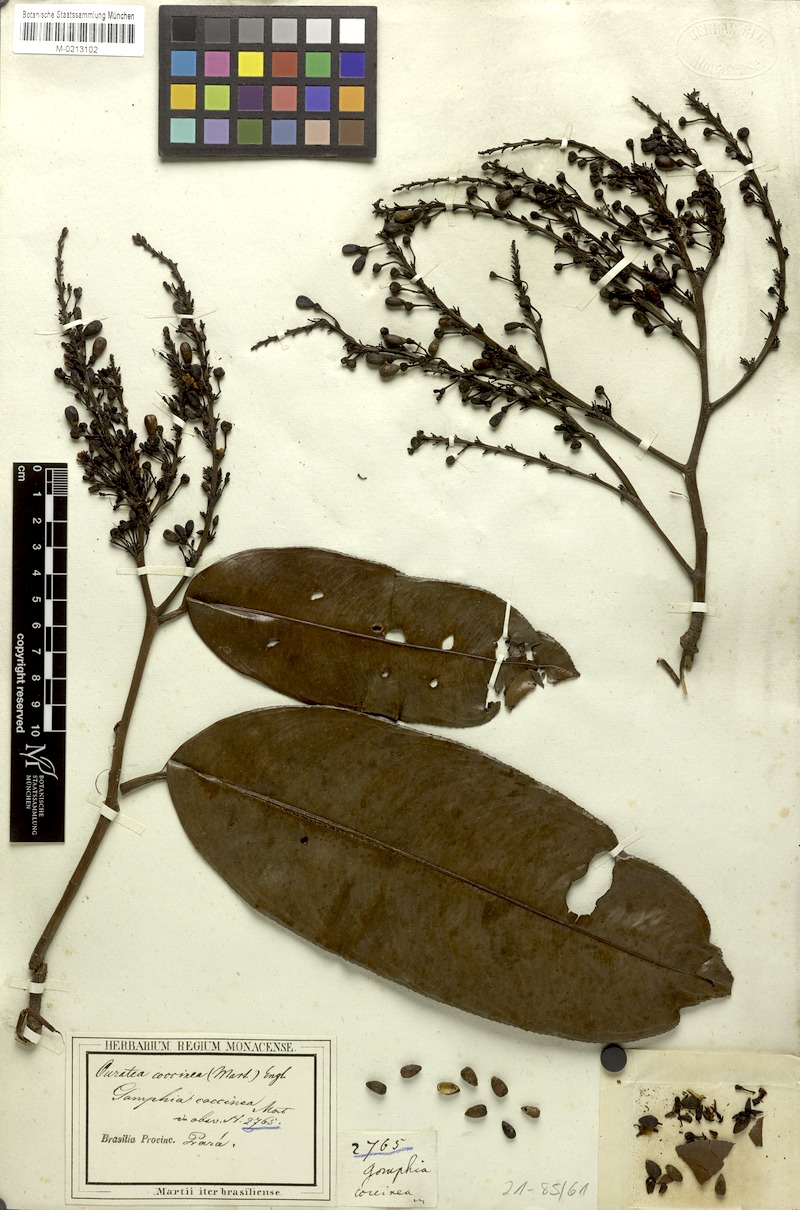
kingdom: Plantae
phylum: Tracheophyta
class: Magnoliopsida
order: Malpighiales
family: Ochnaceae
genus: Ouratea
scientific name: Ouratea coccinea
